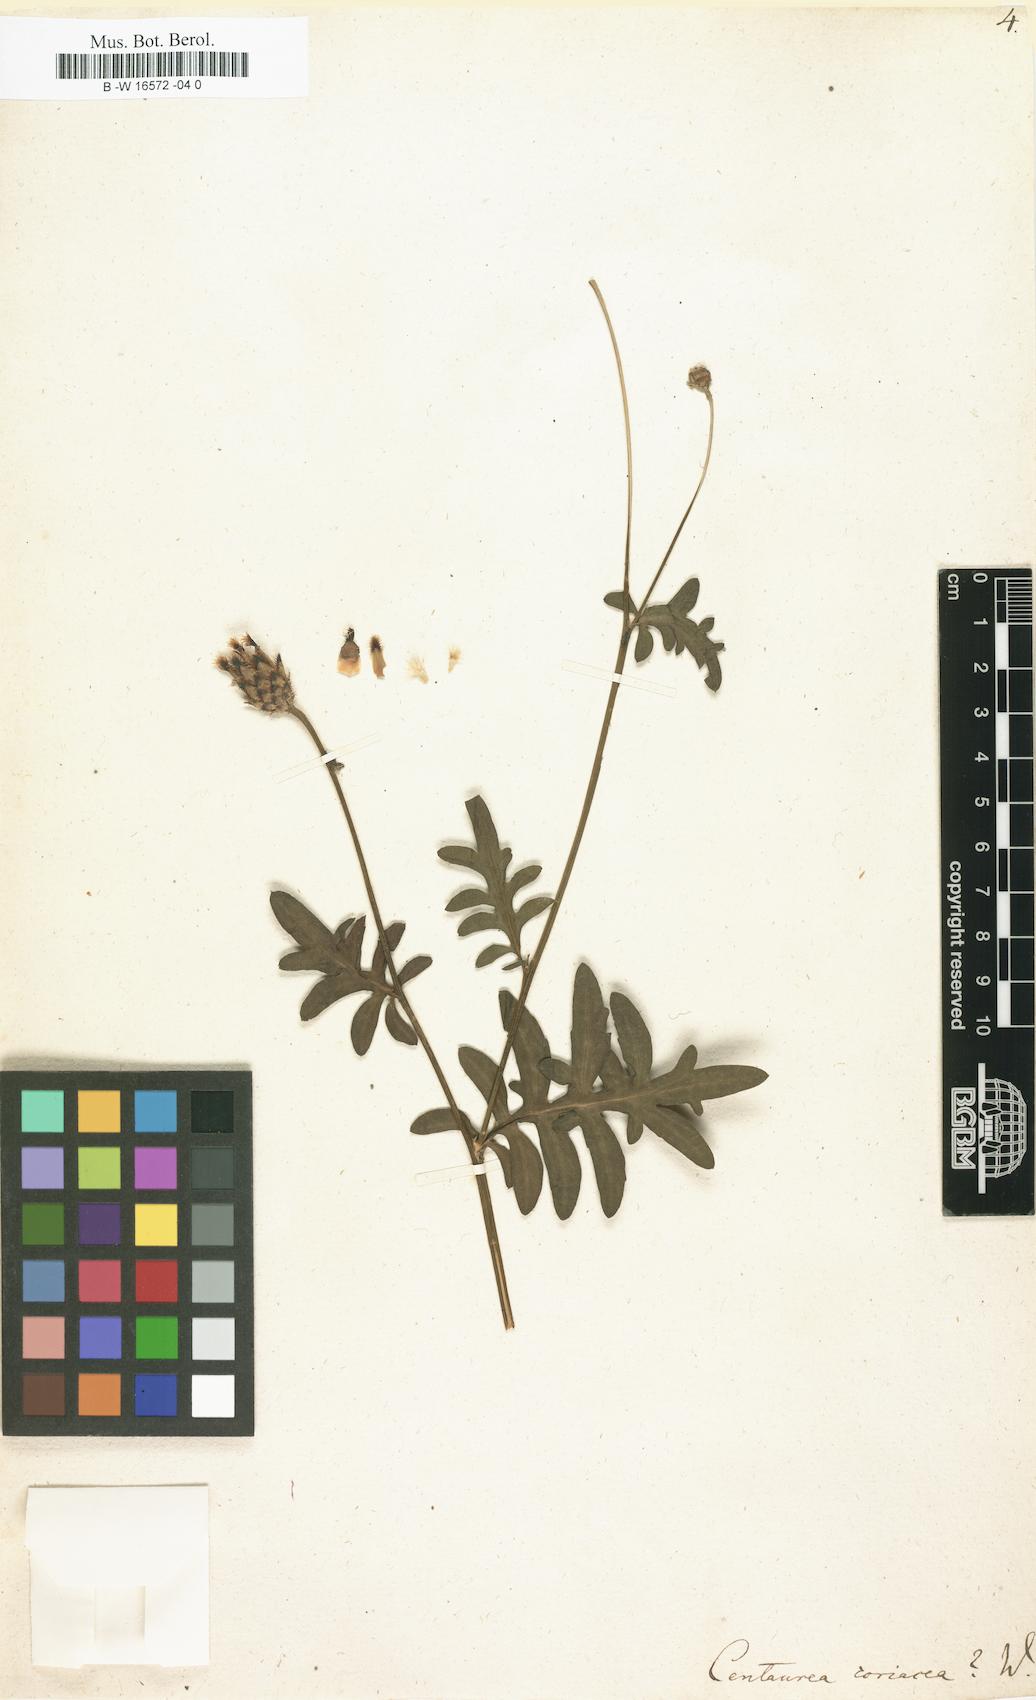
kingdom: Plantae
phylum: Tracheophyta
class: Magnoliopsida
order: Asterales
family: Asteraceae
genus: Centaurea
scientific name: Centaurea scabiosa
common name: Greater knapweed
